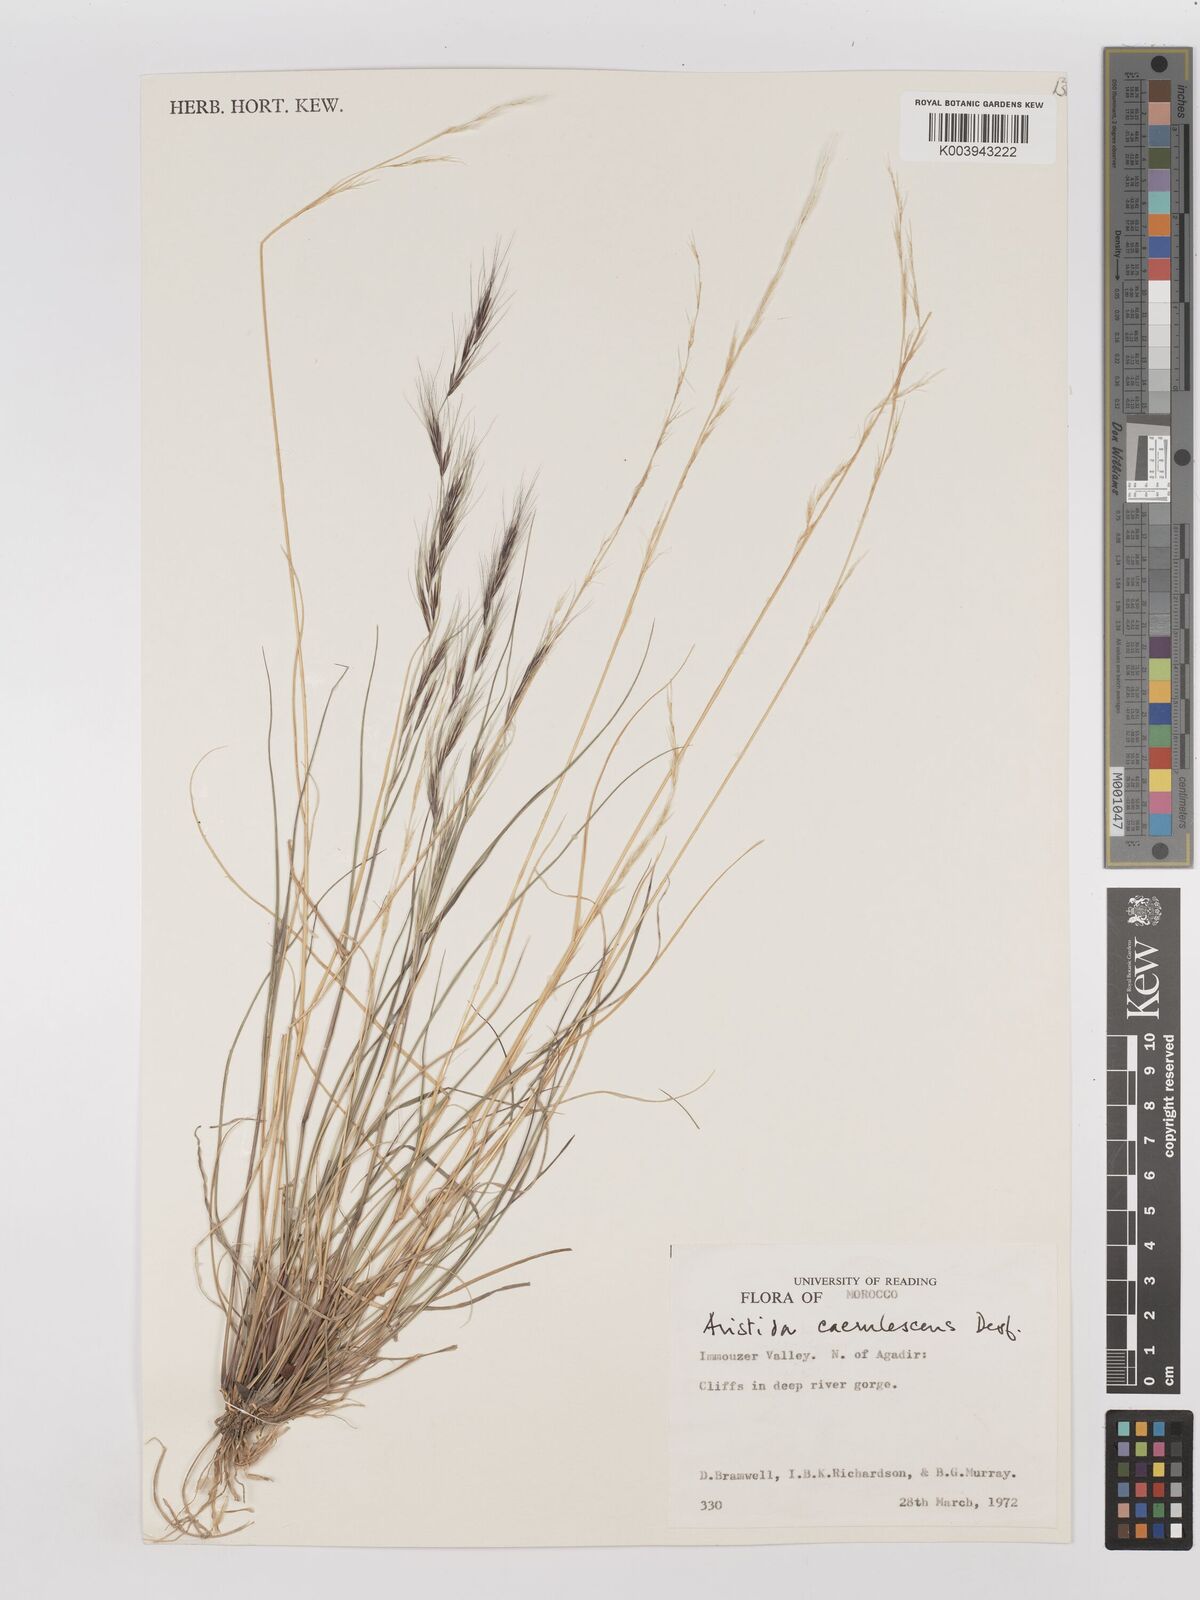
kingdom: Plantae
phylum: Tracheophyta
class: Liliopsida
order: Poales
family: Poaceae
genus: Aristida
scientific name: Aristida adscensionis
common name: Sixweeks threeawn
